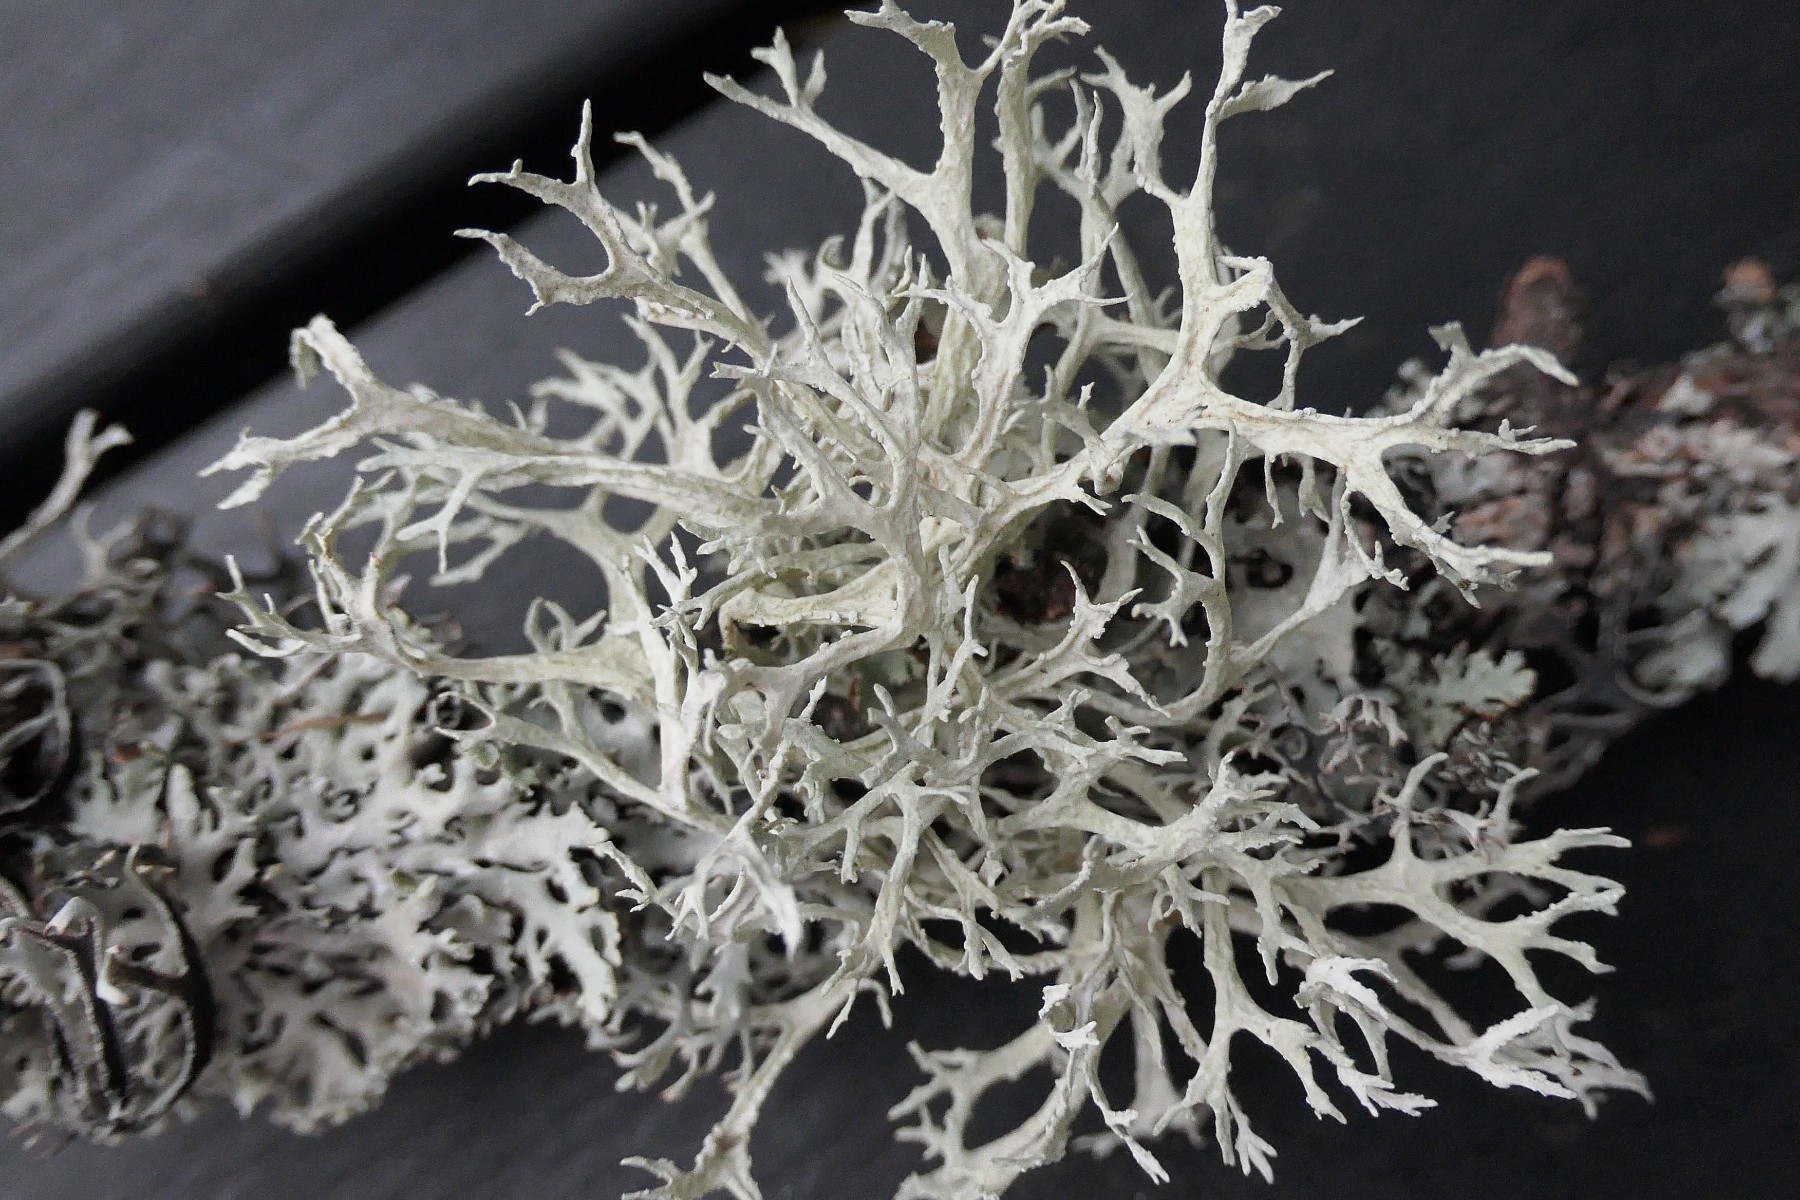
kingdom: Fungi
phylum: Ascomycota
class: Lecanoromycetes
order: Lecanorales
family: Parmeliaceae
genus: Evernia
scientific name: Evernia prunastri
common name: almindelig slåenlav
